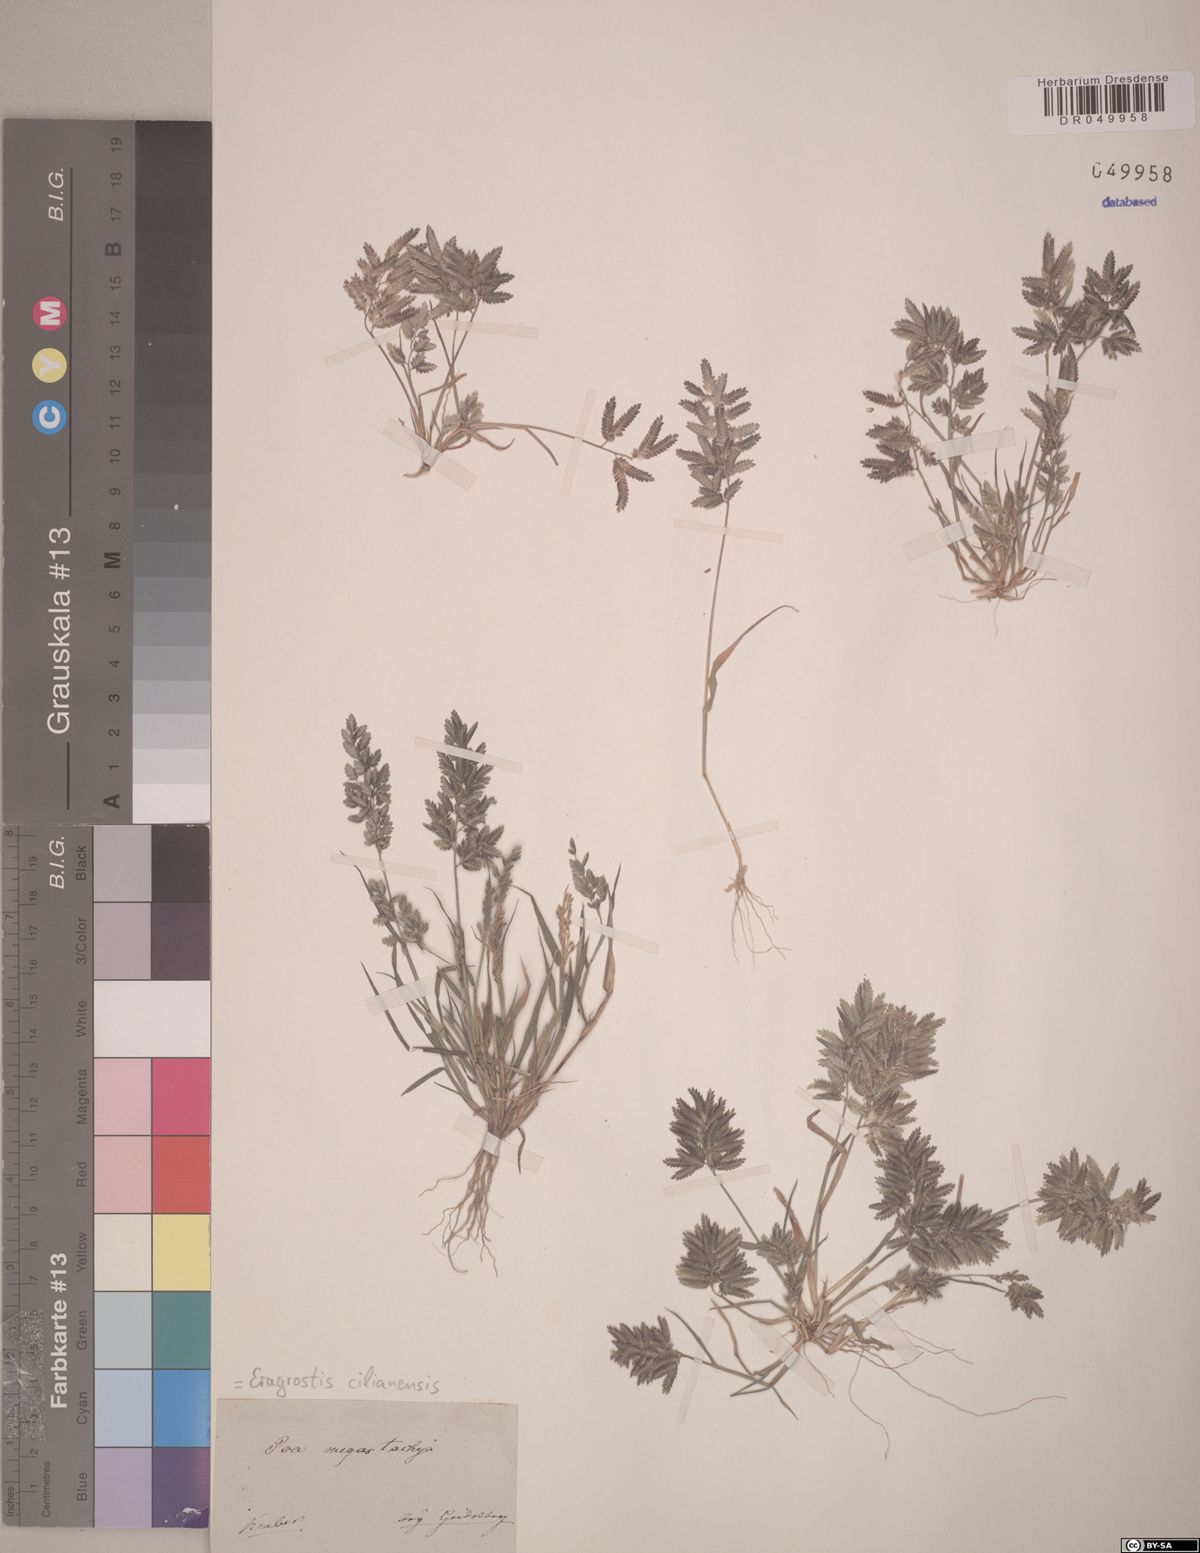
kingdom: Plantae
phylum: Tracheophyta
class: Liliopsida
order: Poales
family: Poaceae
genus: Eragrostis
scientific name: Eragrostis cilianensis
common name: Stinkgrass
